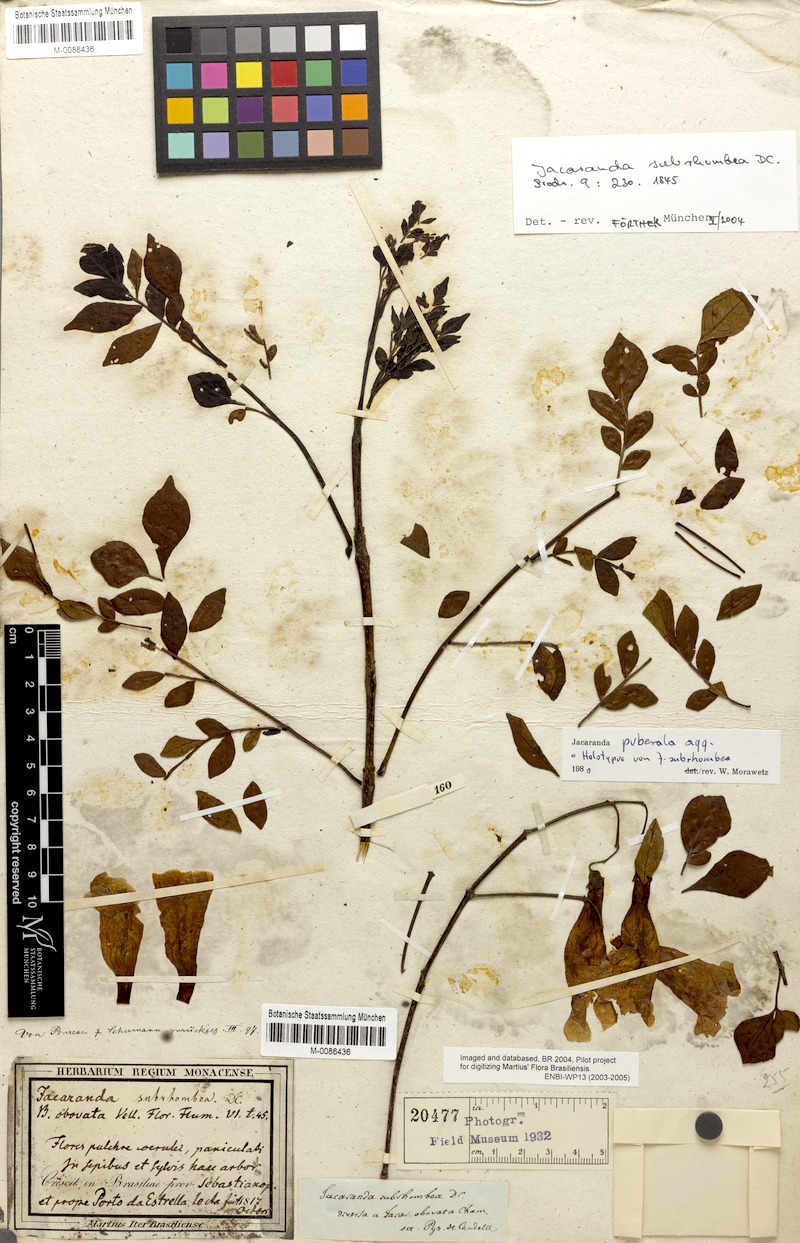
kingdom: Plantae
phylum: Tracheophyta
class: Magnoliopsida
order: Lamiales
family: Bignoniaceae
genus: Jacaranda
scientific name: Jacaranda puberula
